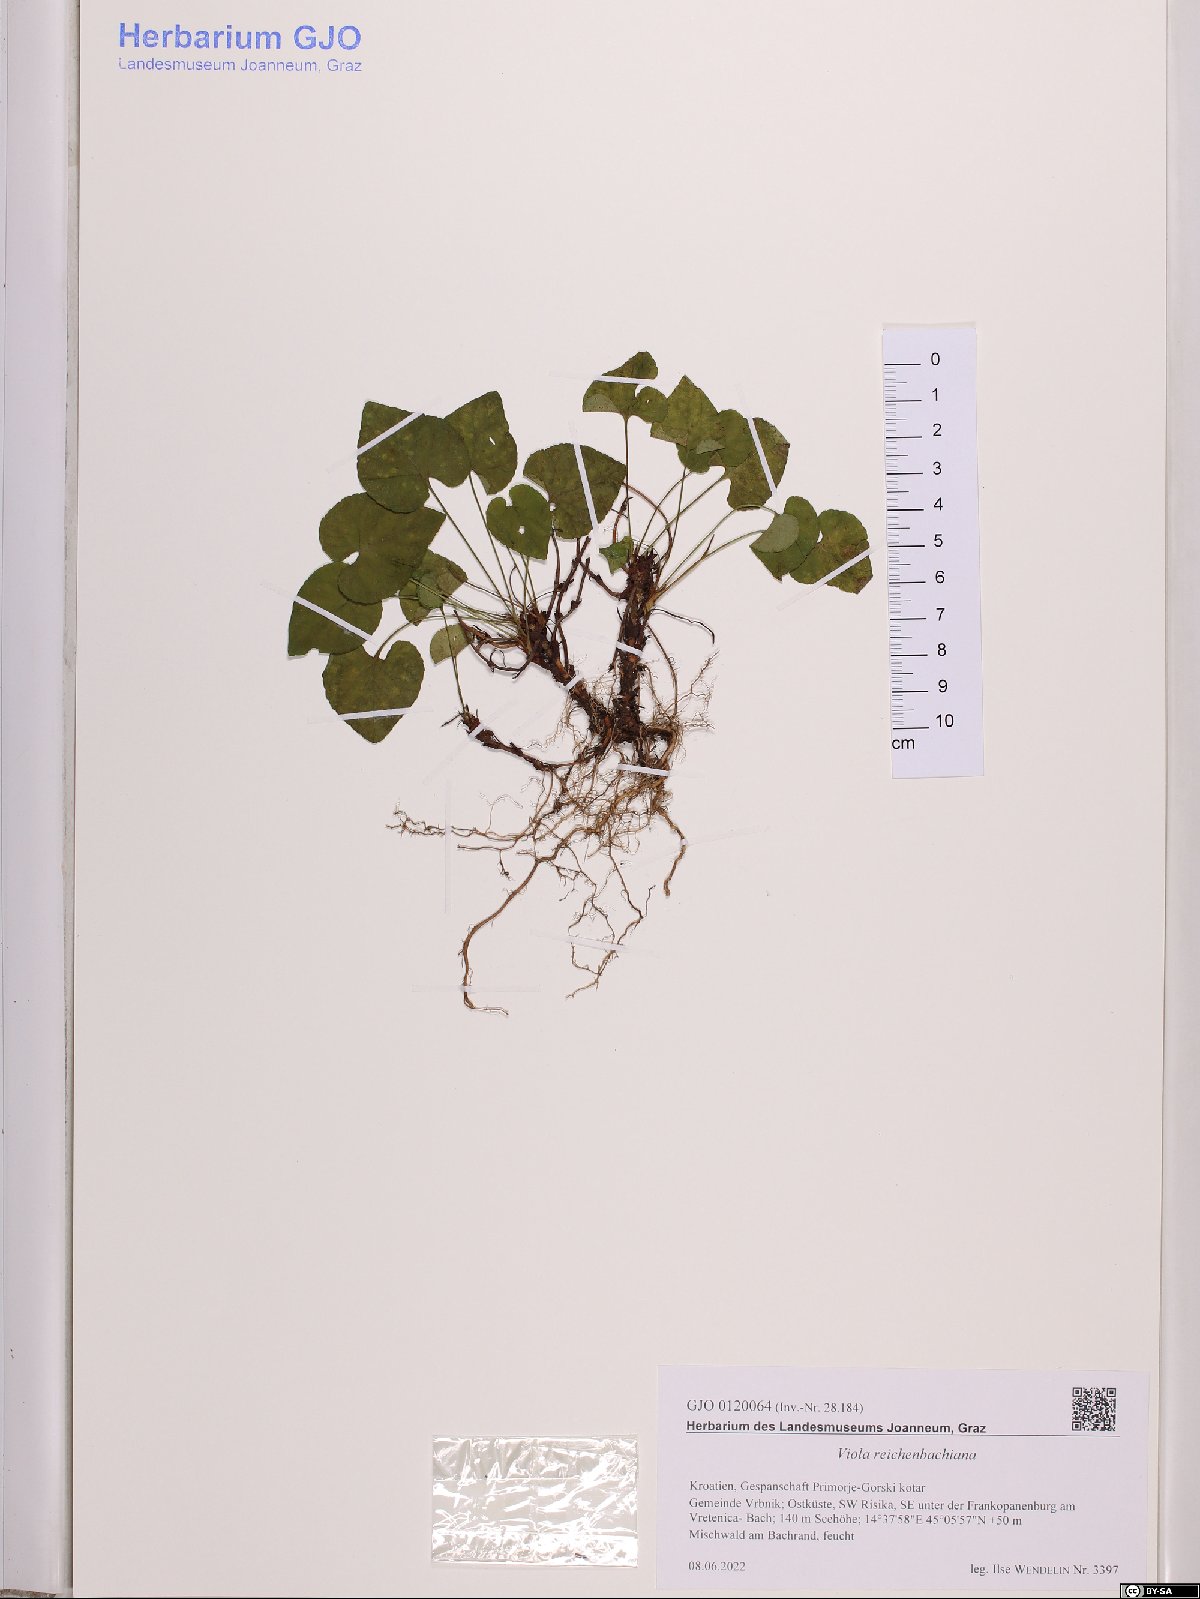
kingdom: Plantae
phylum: Tracheophyta
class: Magnoliopsida
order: Malpighiales
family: Violaceae
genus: Viola
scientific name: Viola reichenbachiana
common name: Early dog-violet
